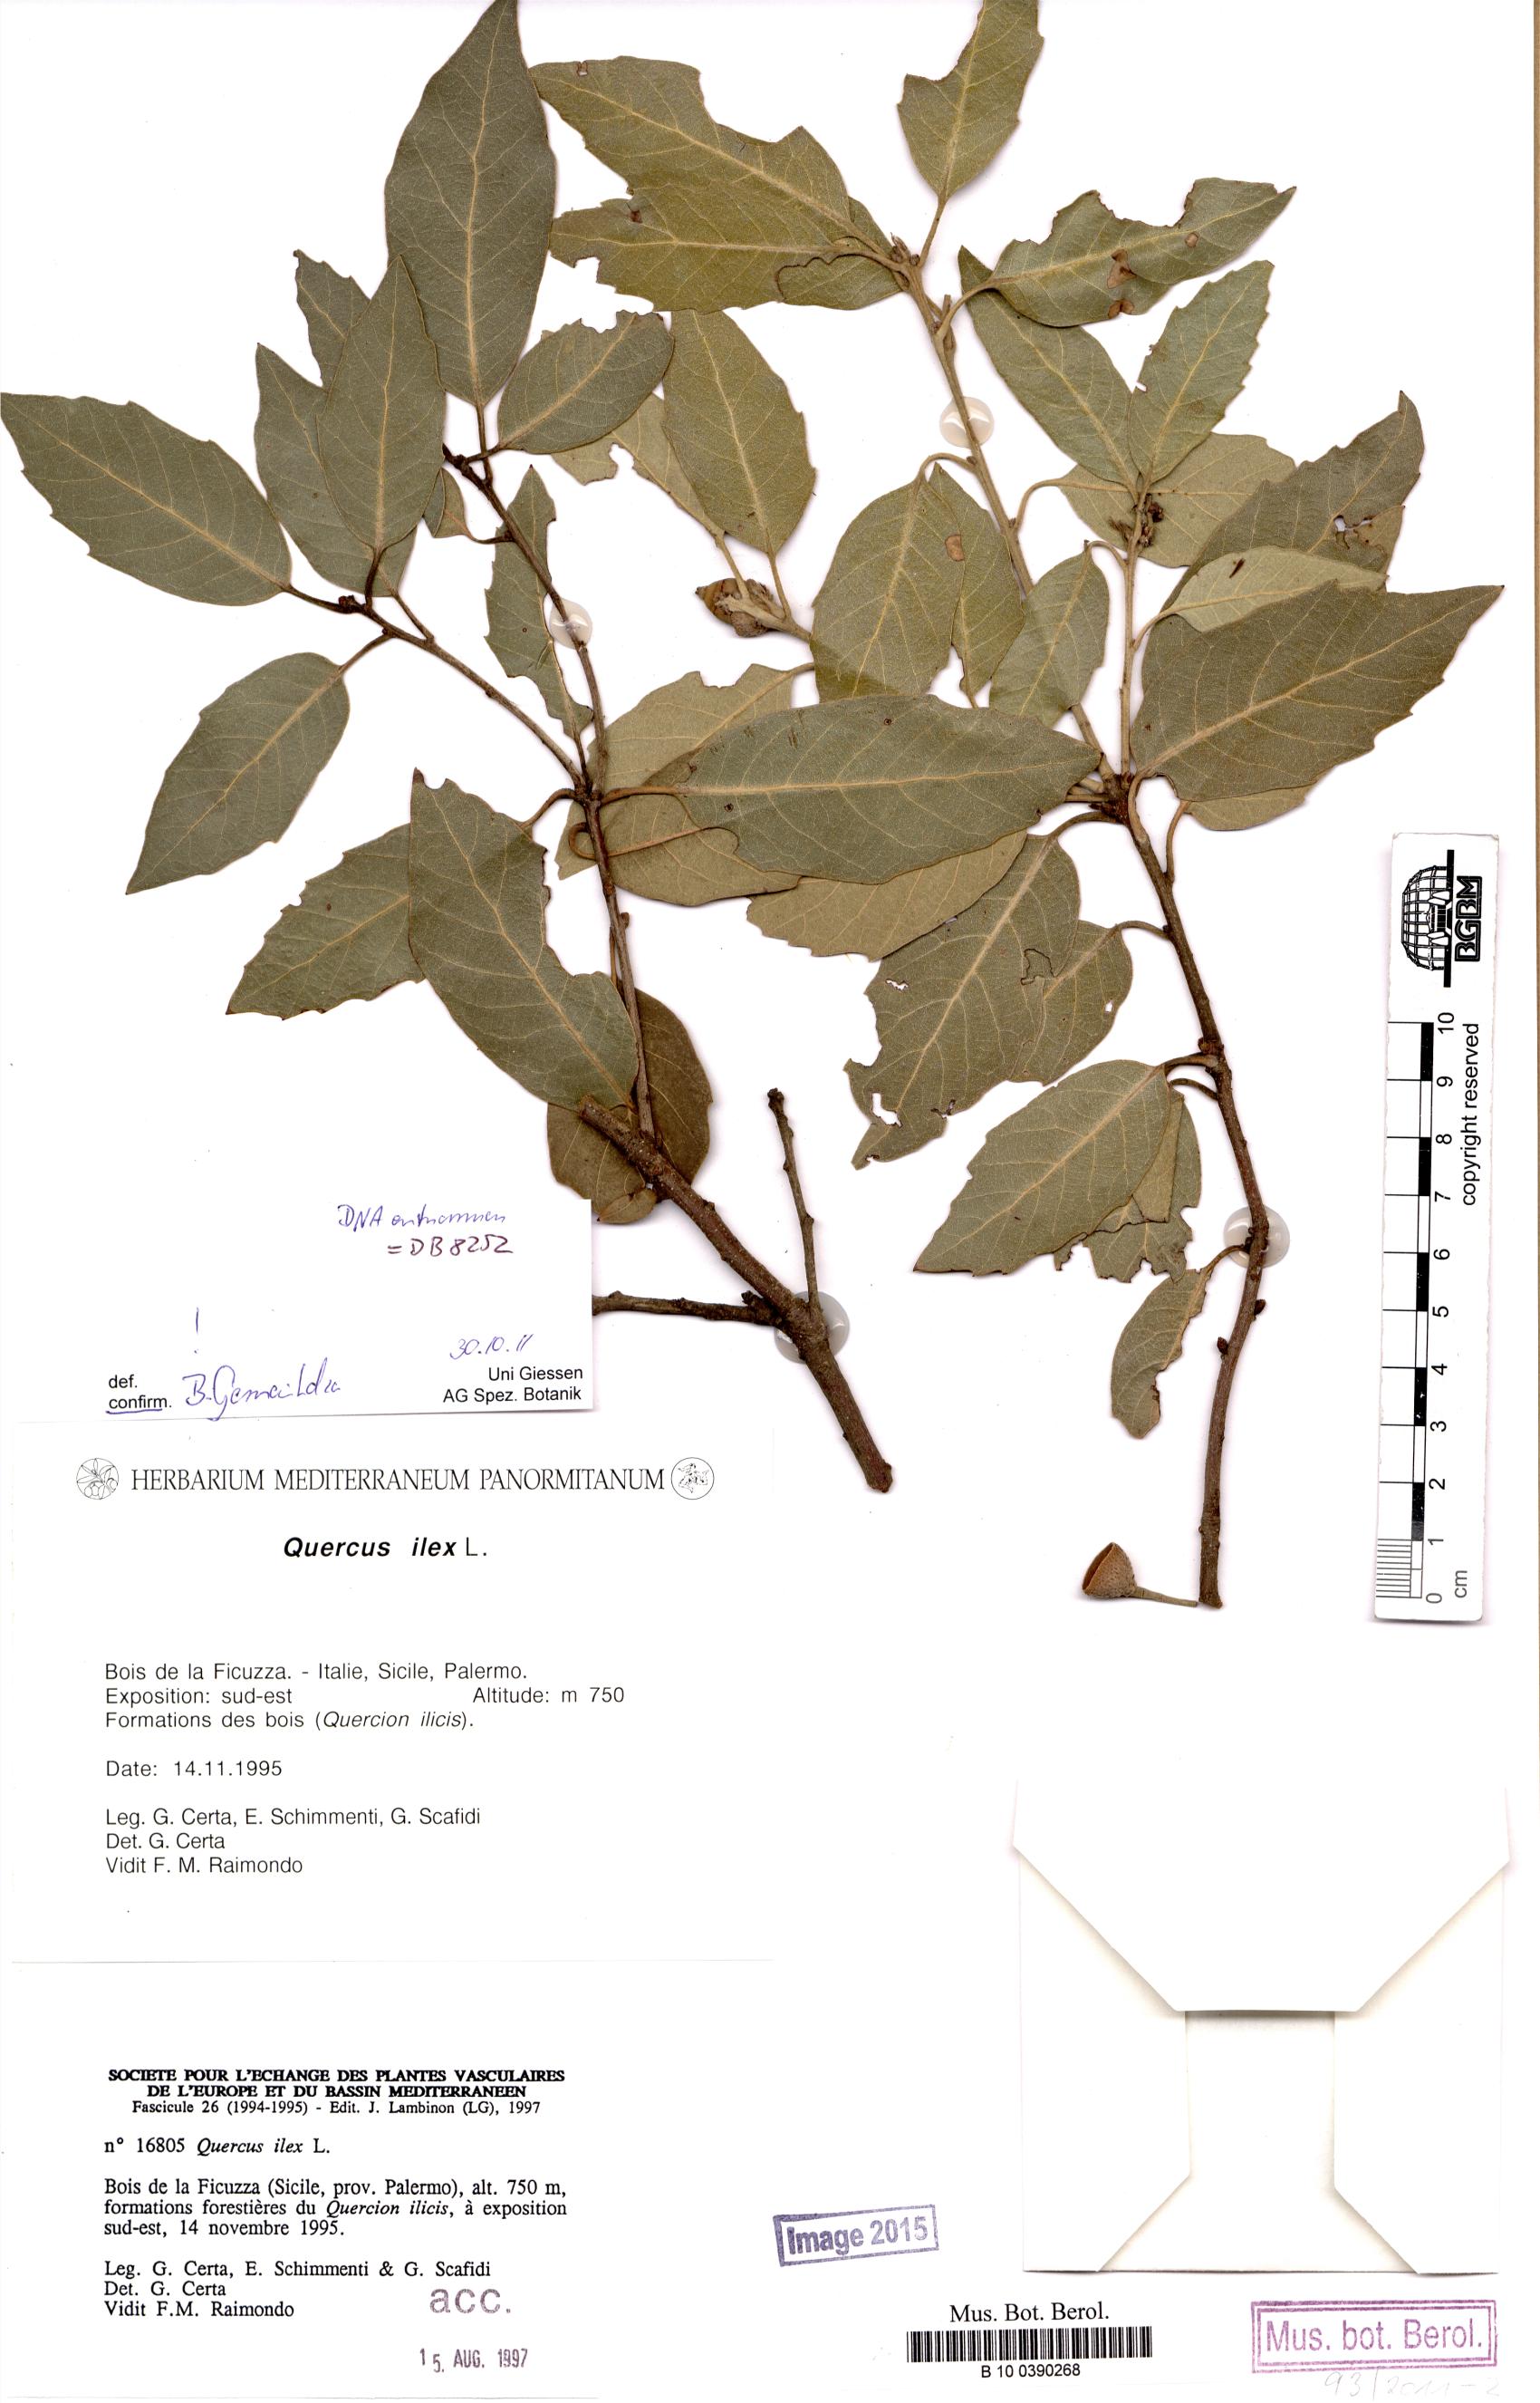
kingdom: Plantae
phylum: Tracheophyta
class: Magnoliopsida
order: Fagales
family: Fagaceae
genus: Quercus
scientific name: Quercus ilex
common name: Evergreen oak
